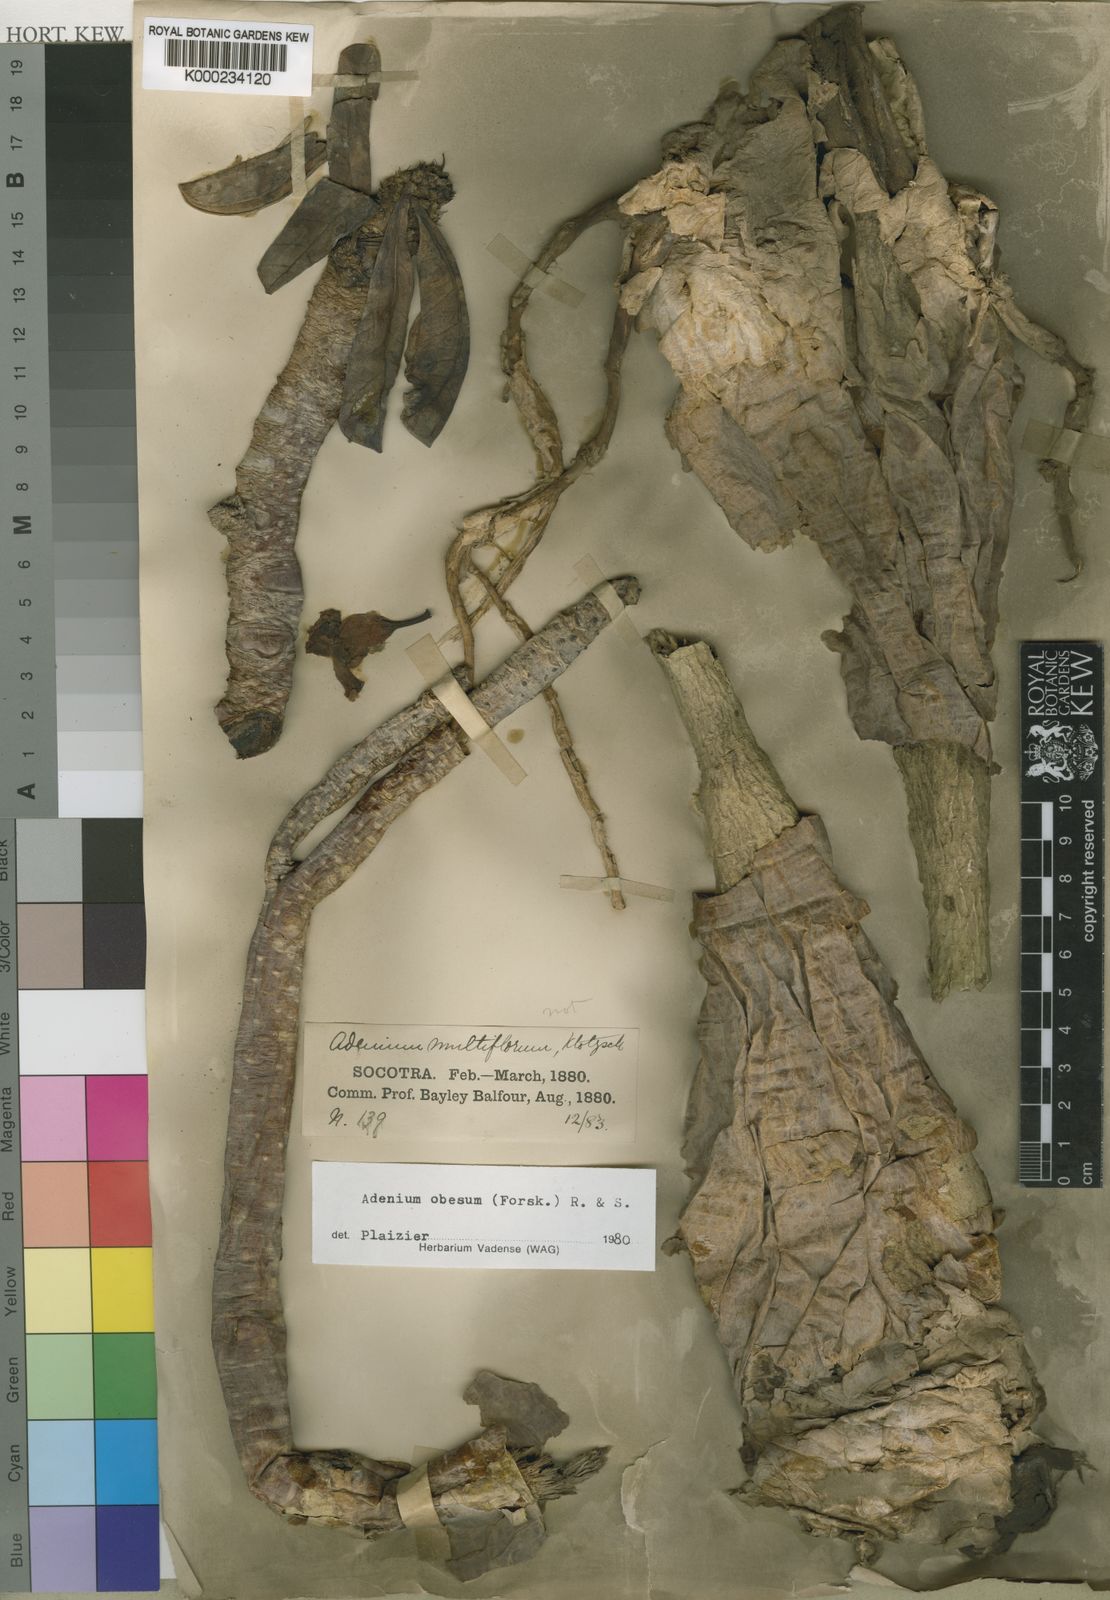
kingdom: Plantae
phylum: Tracheophyta
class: Magnoliopsida
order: Gentianales
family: Apocynaceae
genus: Adenium
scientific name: Adenium obesum
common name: Desert-rose
